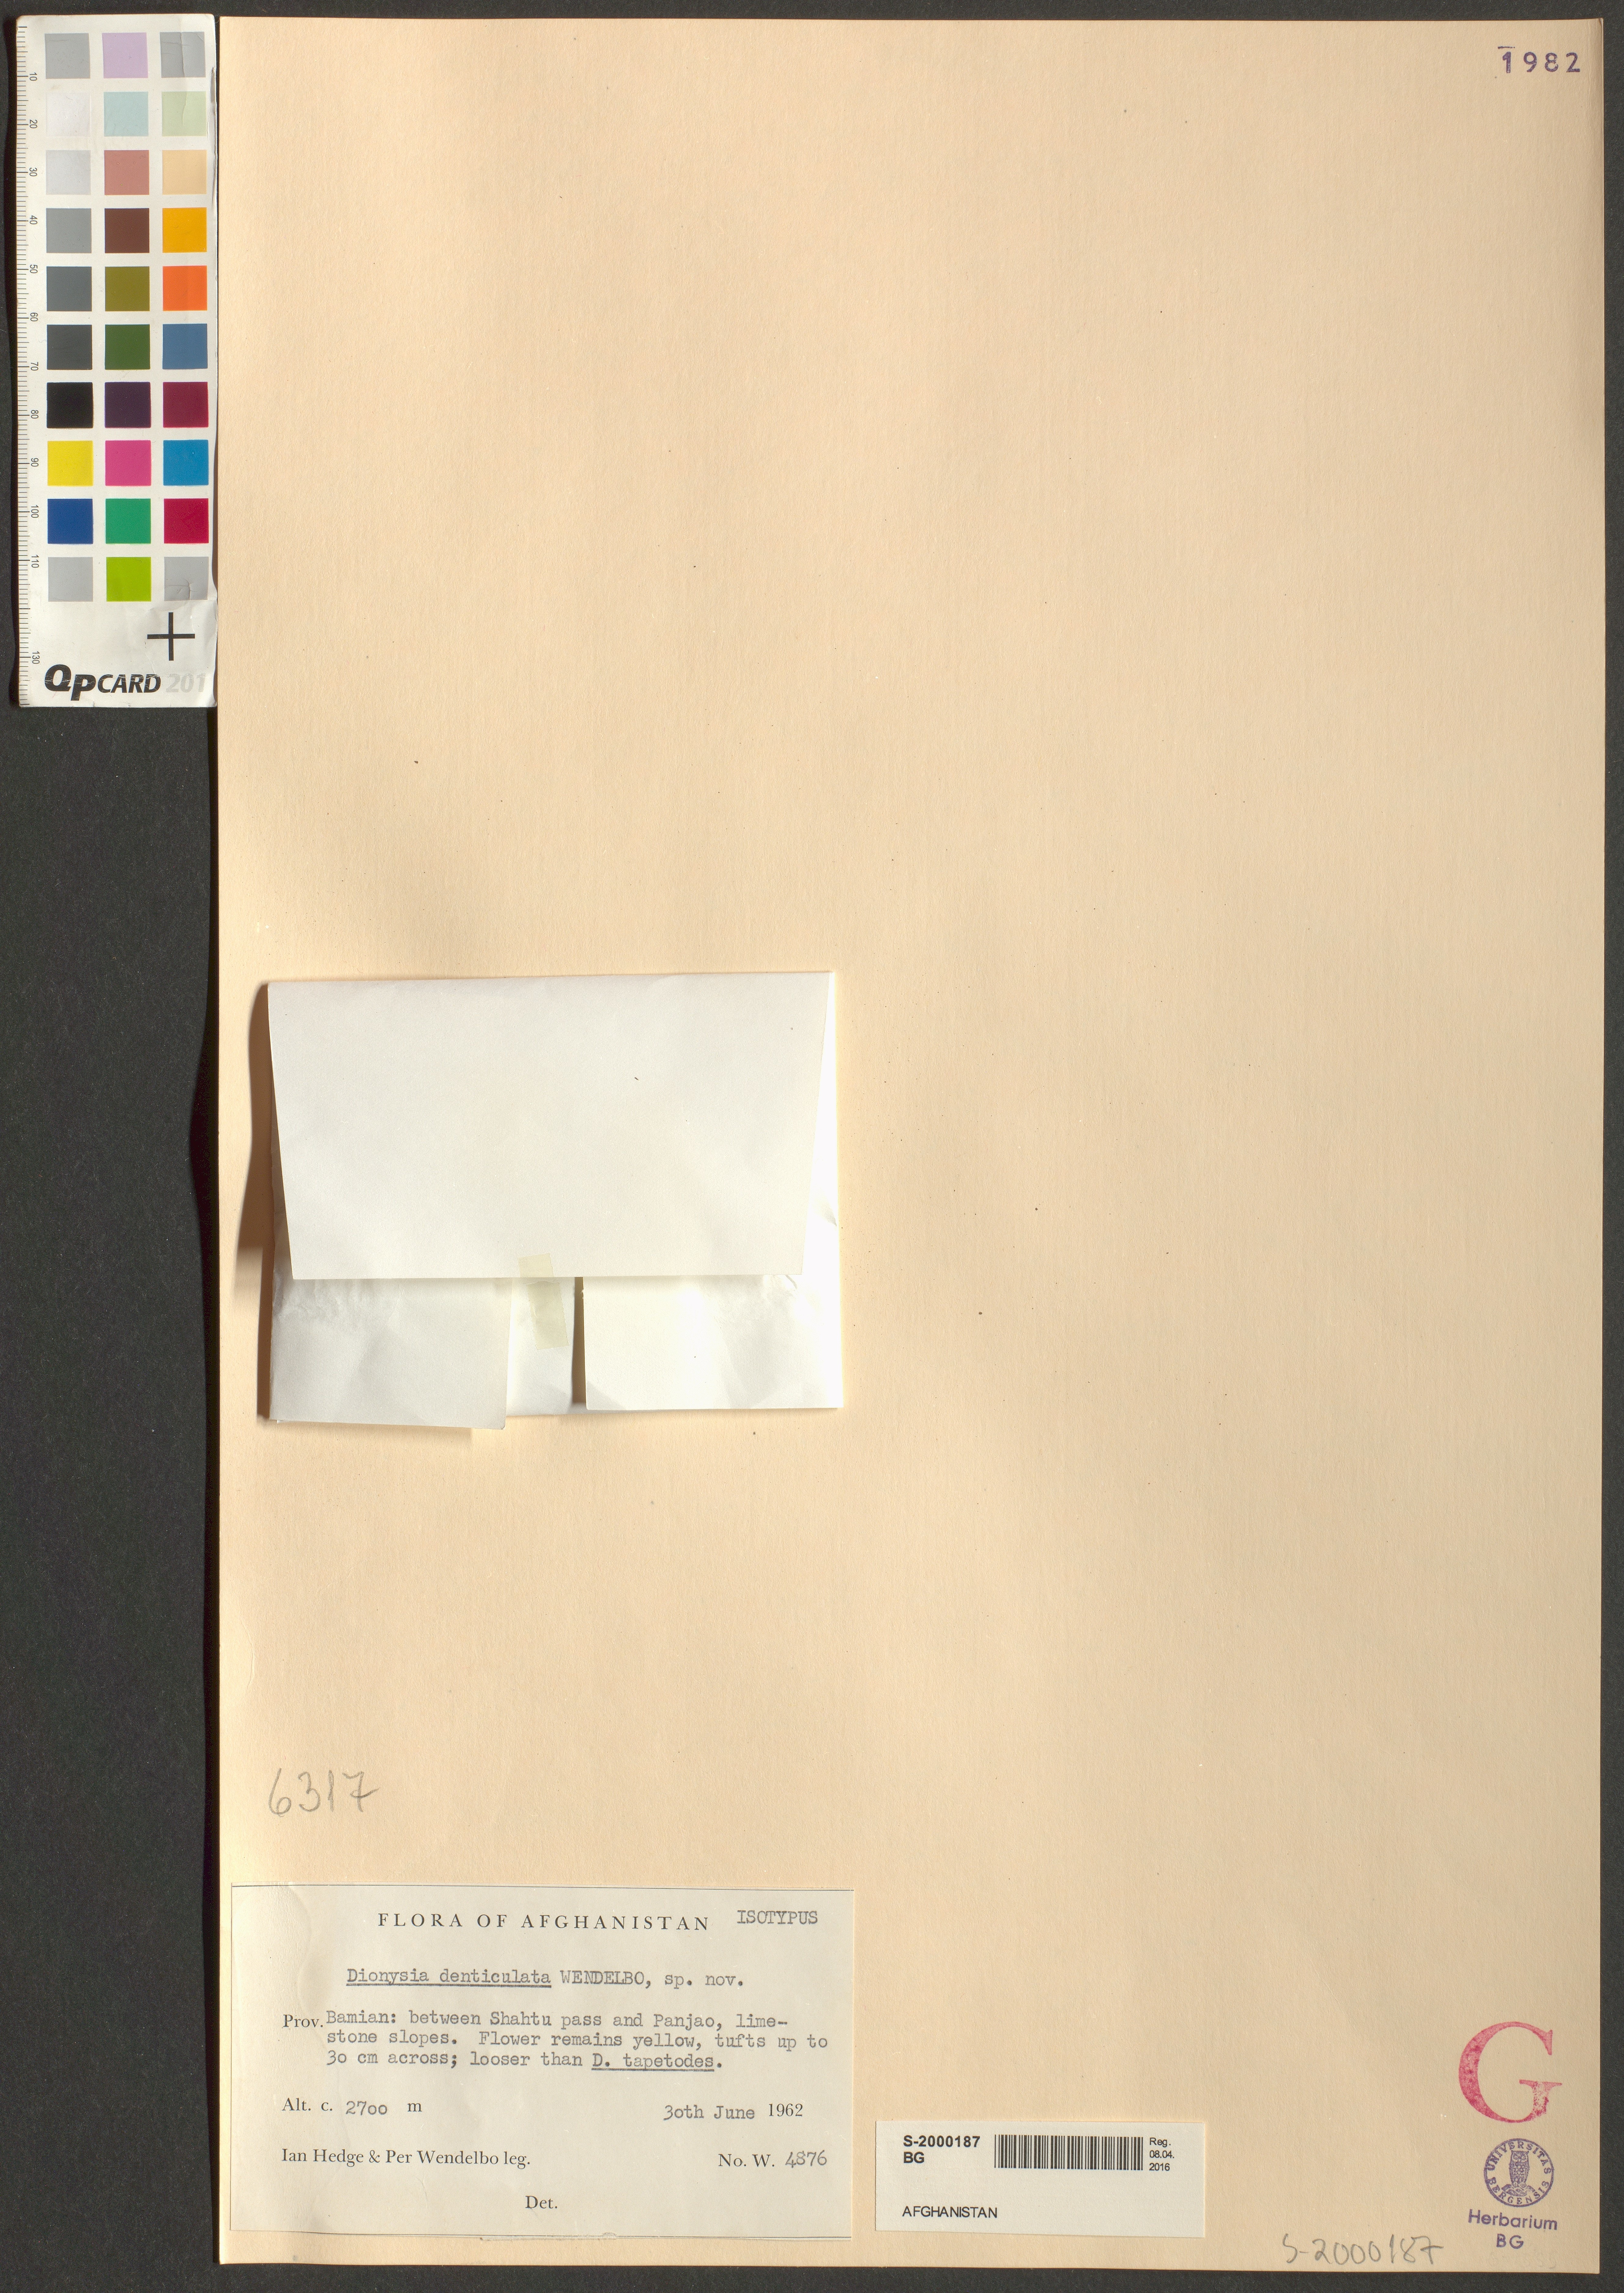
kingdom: Plantae
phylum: Tracheophyta
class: Magnoliopsida
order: Ericales
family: Primulaceae
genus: Dionysia
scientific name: Dionysia denticulata
